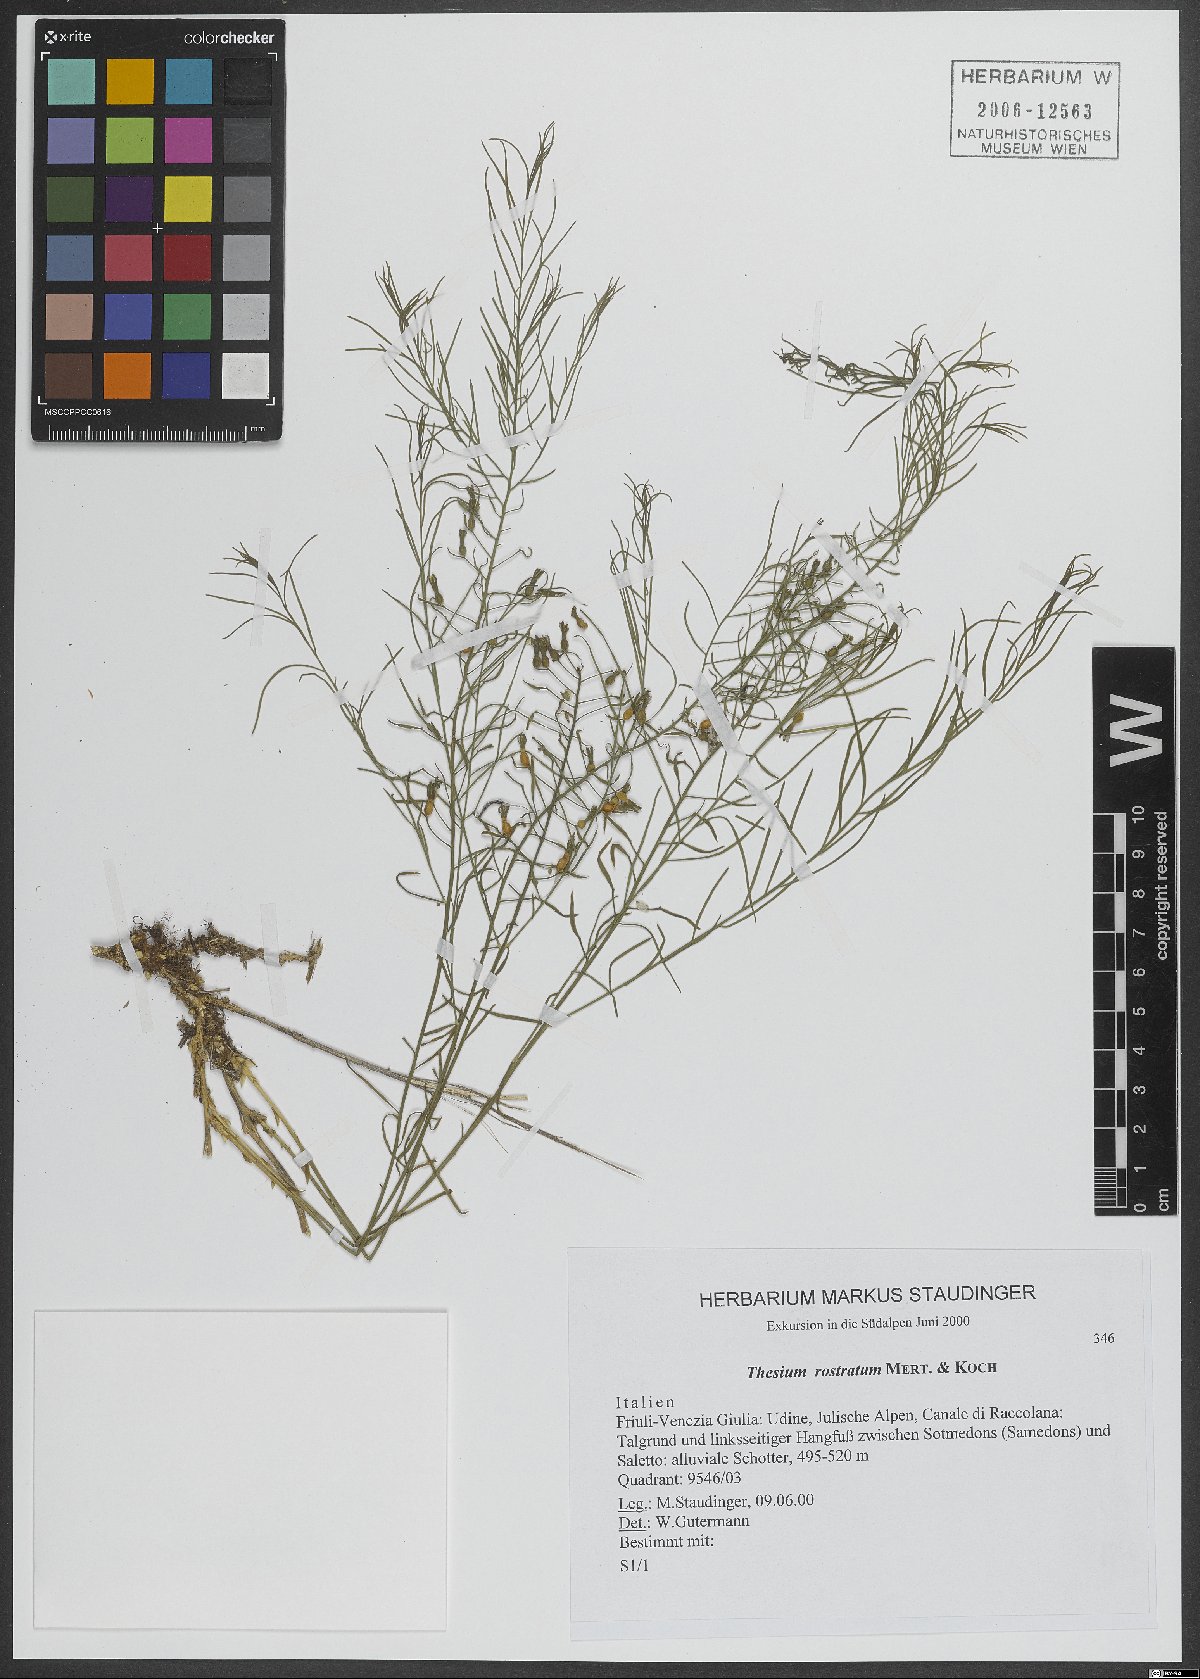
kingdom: Plantae
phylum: Tracheophyta
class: Magnoliopsida
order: Santalales
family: Thesiaceae
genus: Thesium
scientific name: Thesium rostratum
